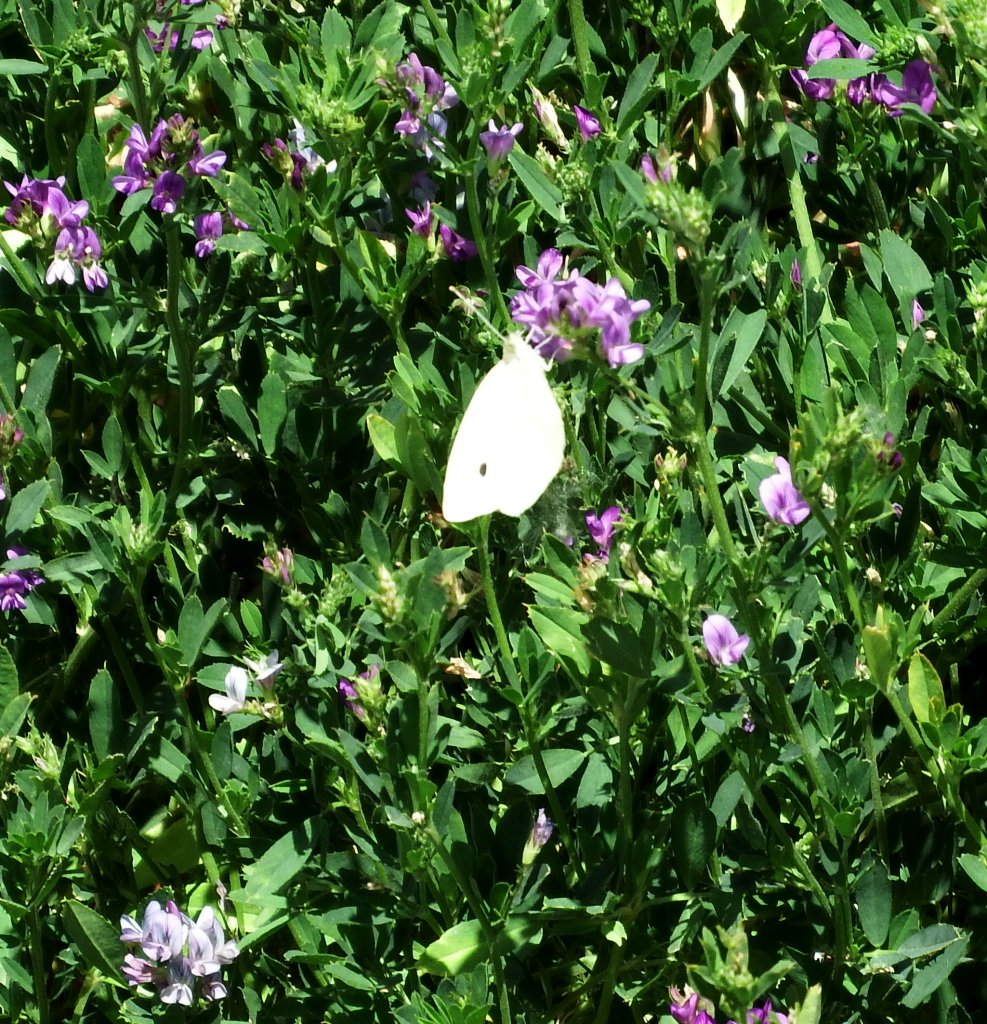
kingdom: Animalia
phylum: Arthropoda
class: Insecta
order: Lepidoptera
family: Pieridae
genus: Pieris
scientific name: Pieris rapae
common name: Cabbage White
